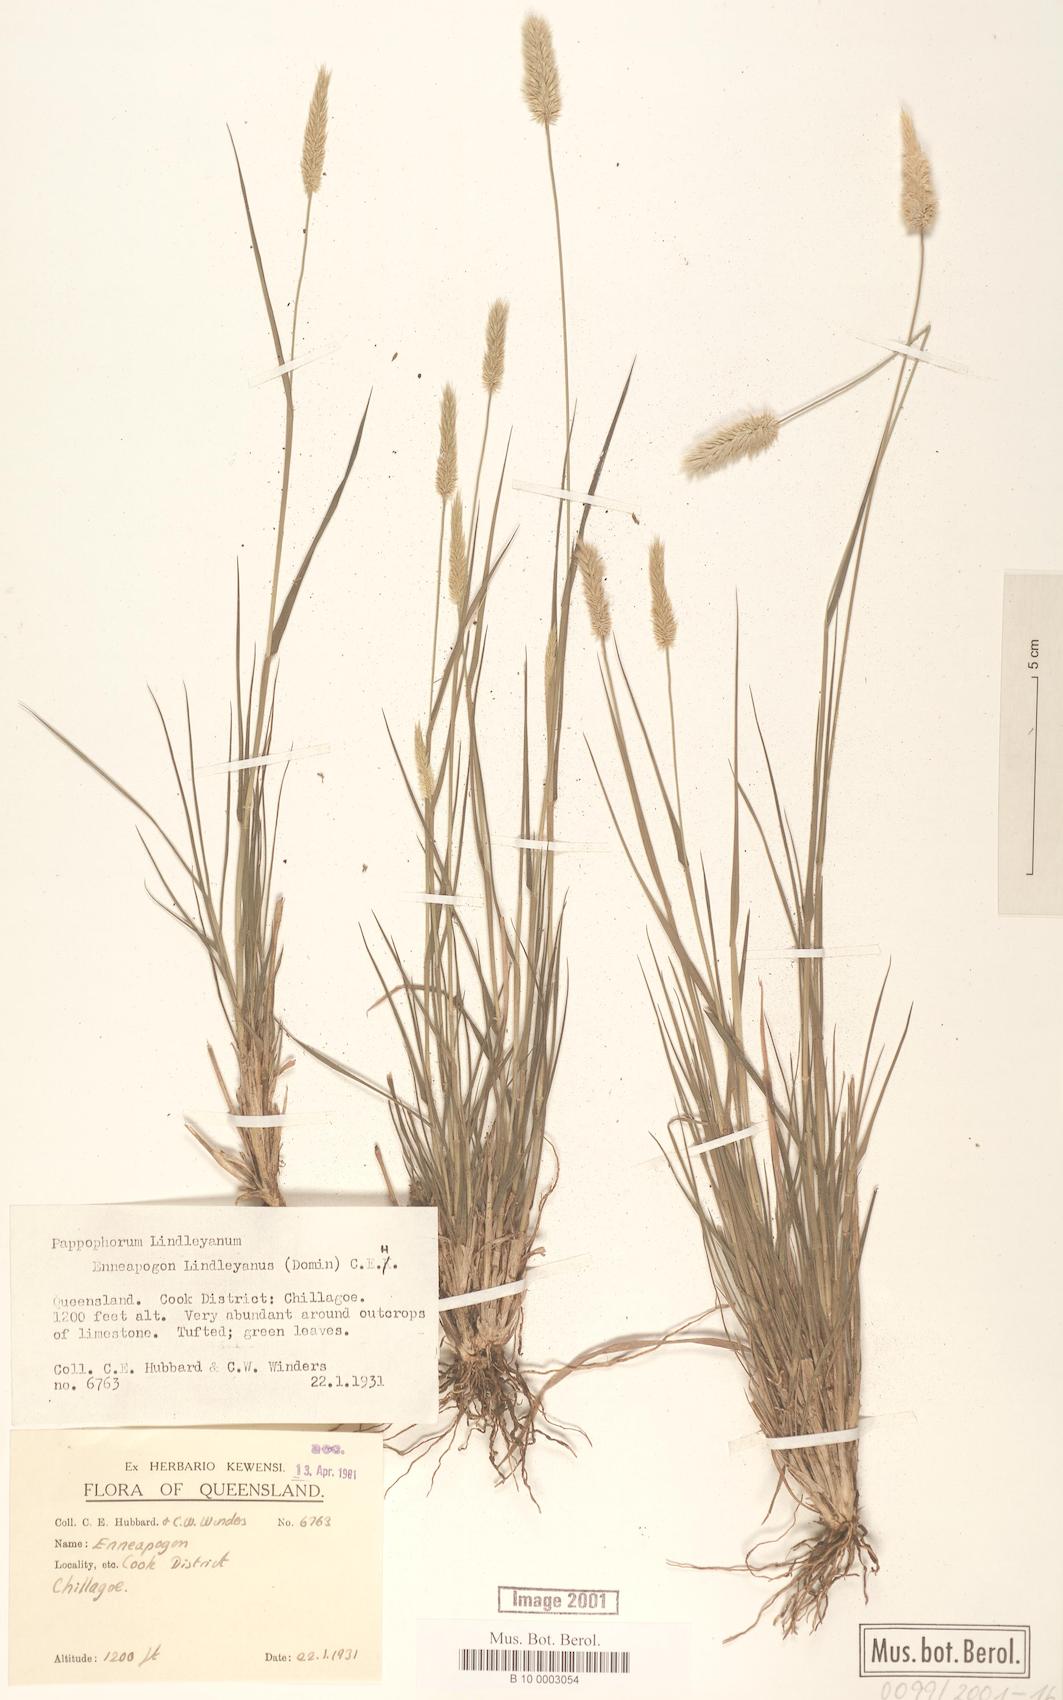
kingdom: Plantae
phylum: Tracheophyta
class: Liliopsida
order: Poales
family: Poaceae
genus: Enneapogon
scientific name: Enneapogon lindleyanus
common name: Conetop nineawn
